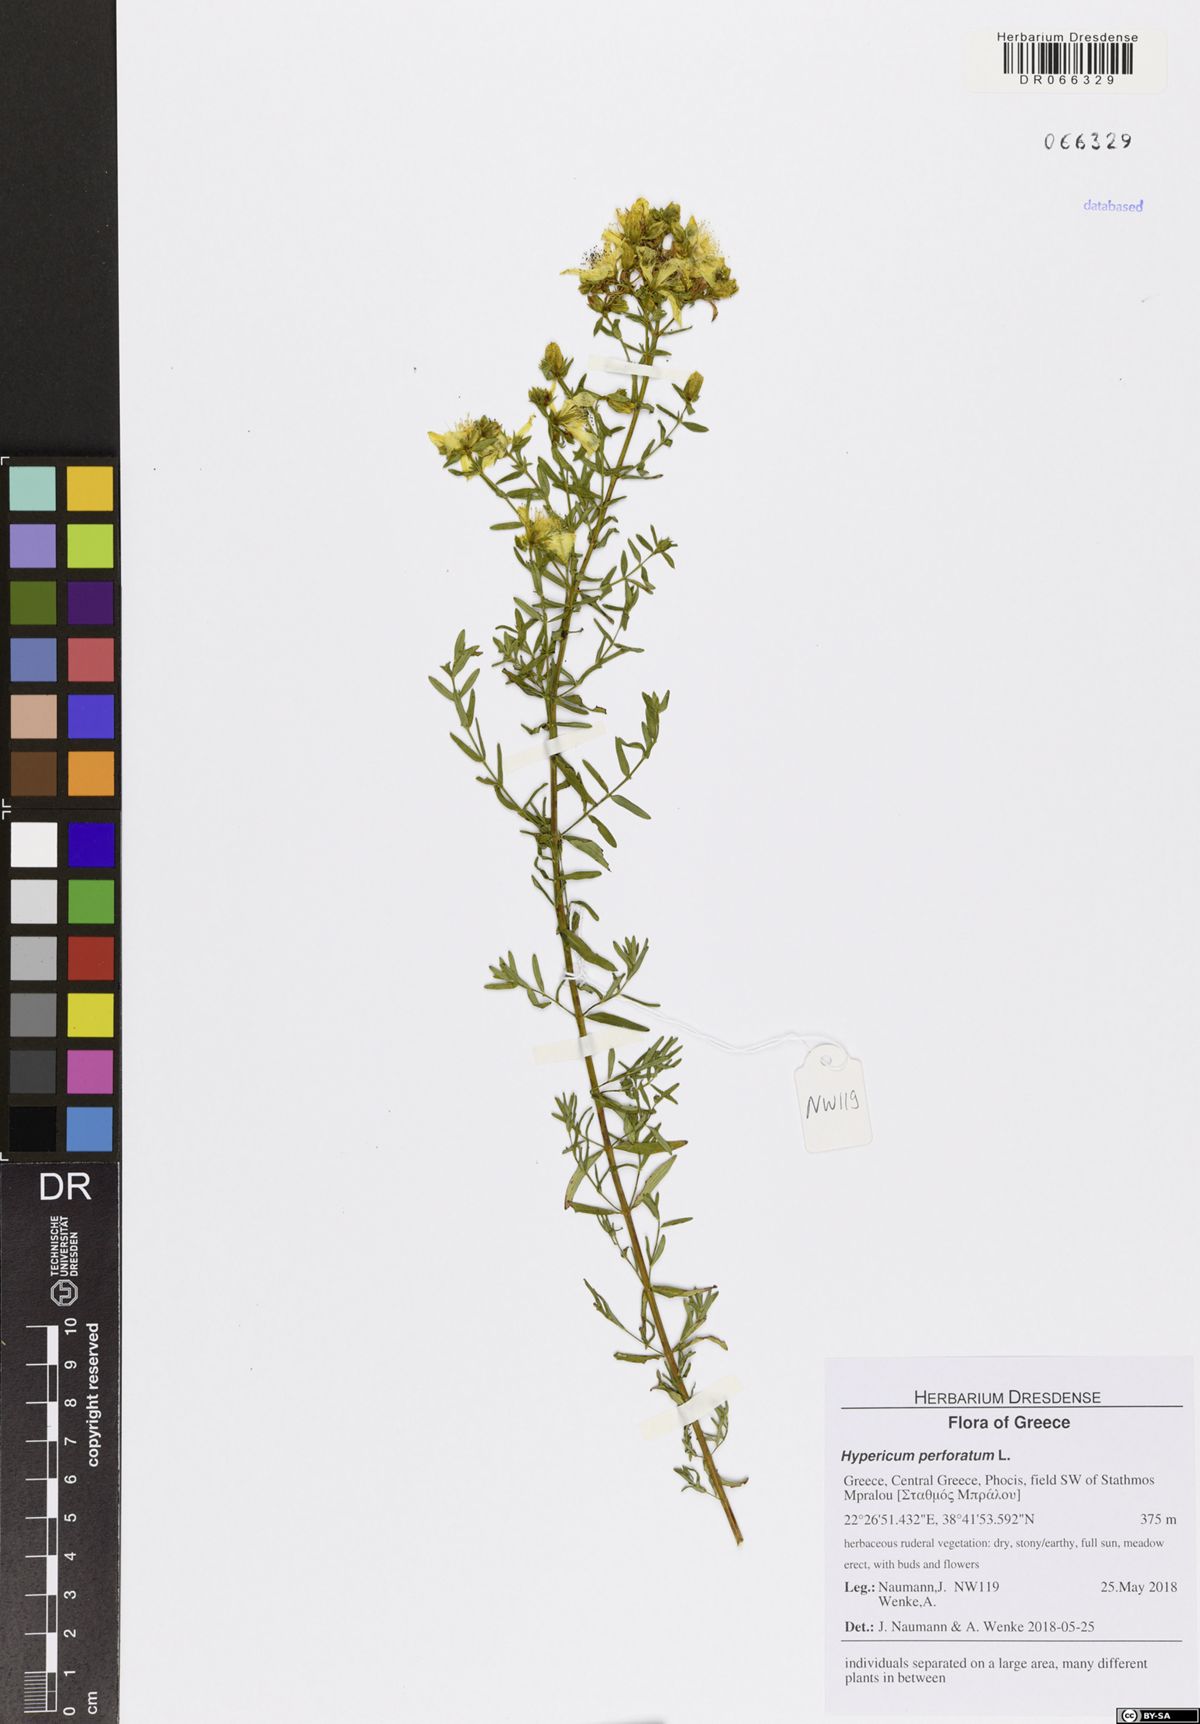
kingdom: Plantae
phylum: Tracheophyta
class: Magnoliopsida
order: Malpighiales
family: Hypericaceae
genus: Hypericum
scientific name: Hypericum perforatum
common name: Common st. johnswort
